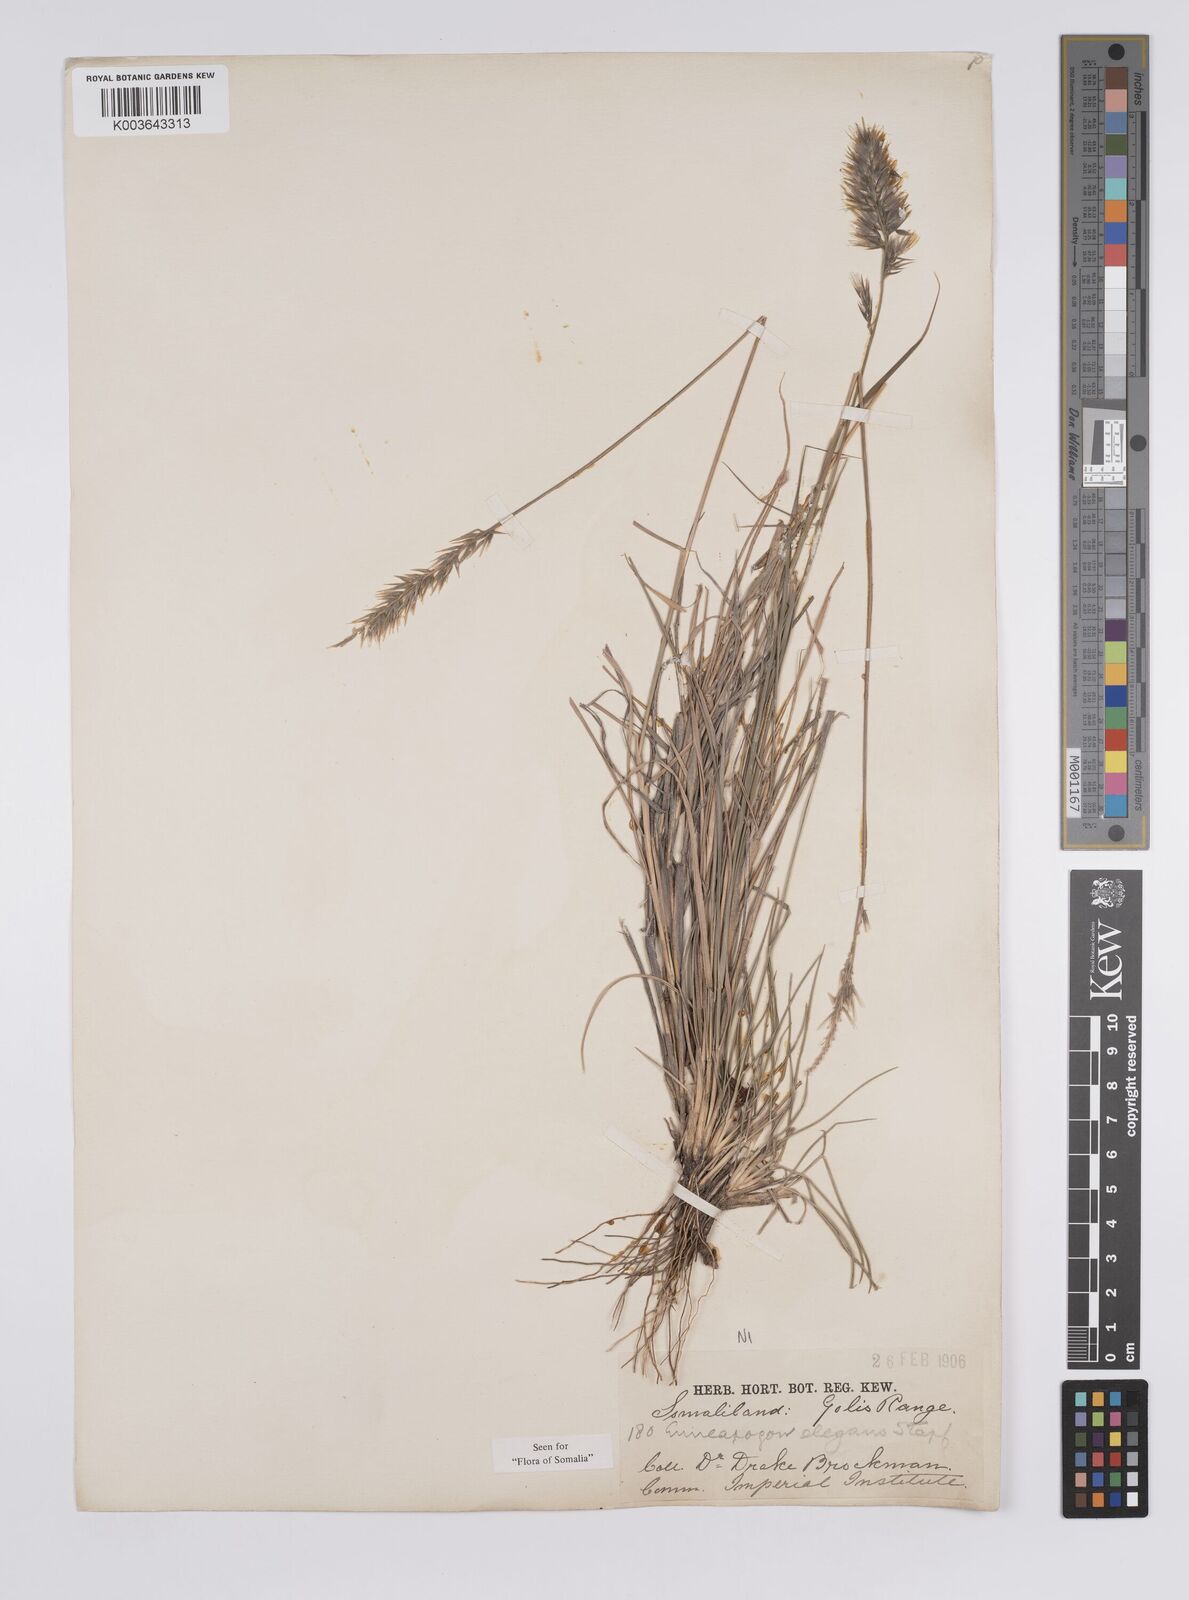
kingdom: Plantae
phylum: Tracheophyta
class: Liliopsida
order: Poales
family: Poaceae
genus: Enneapogon
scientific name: Enneapogon persicus
